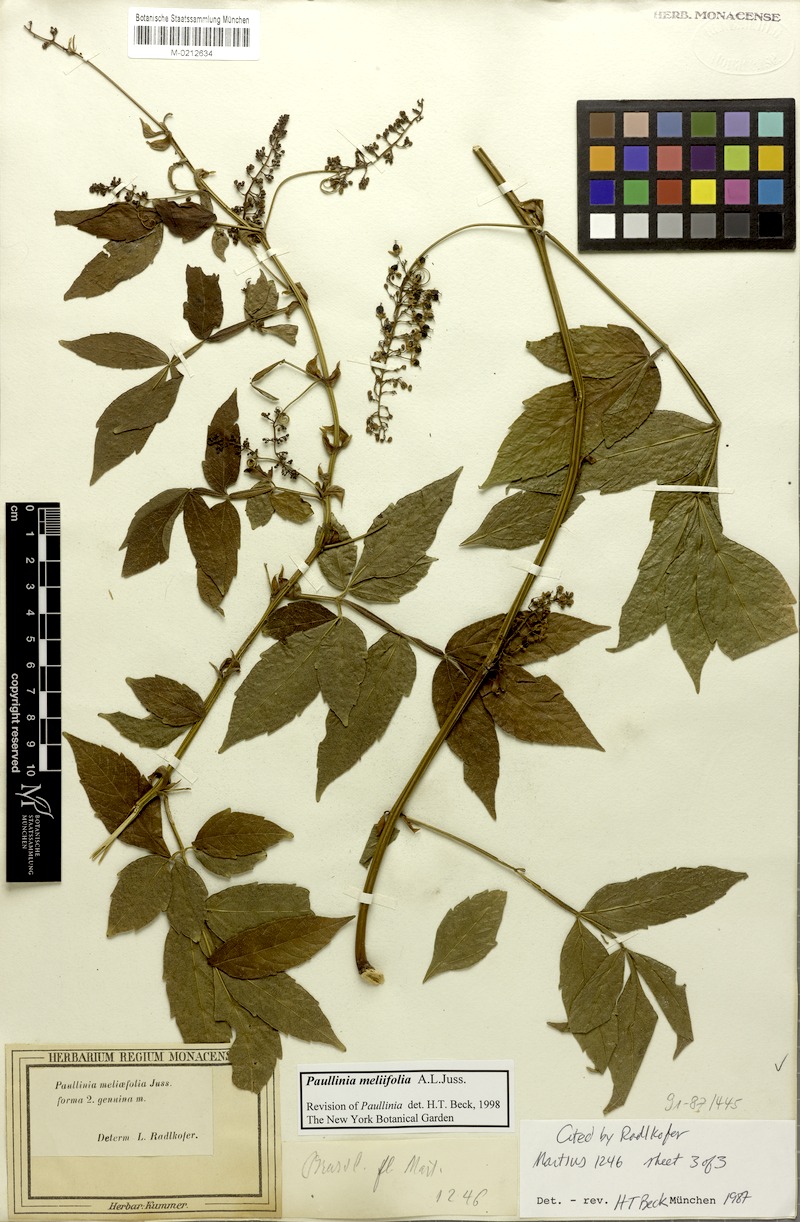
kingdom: Plantae
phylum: Tracheophyta
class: Magnoliopsida
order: Sapindales
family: Sapindaceae
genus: Paullinia
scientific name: Paullinia meliifolia
